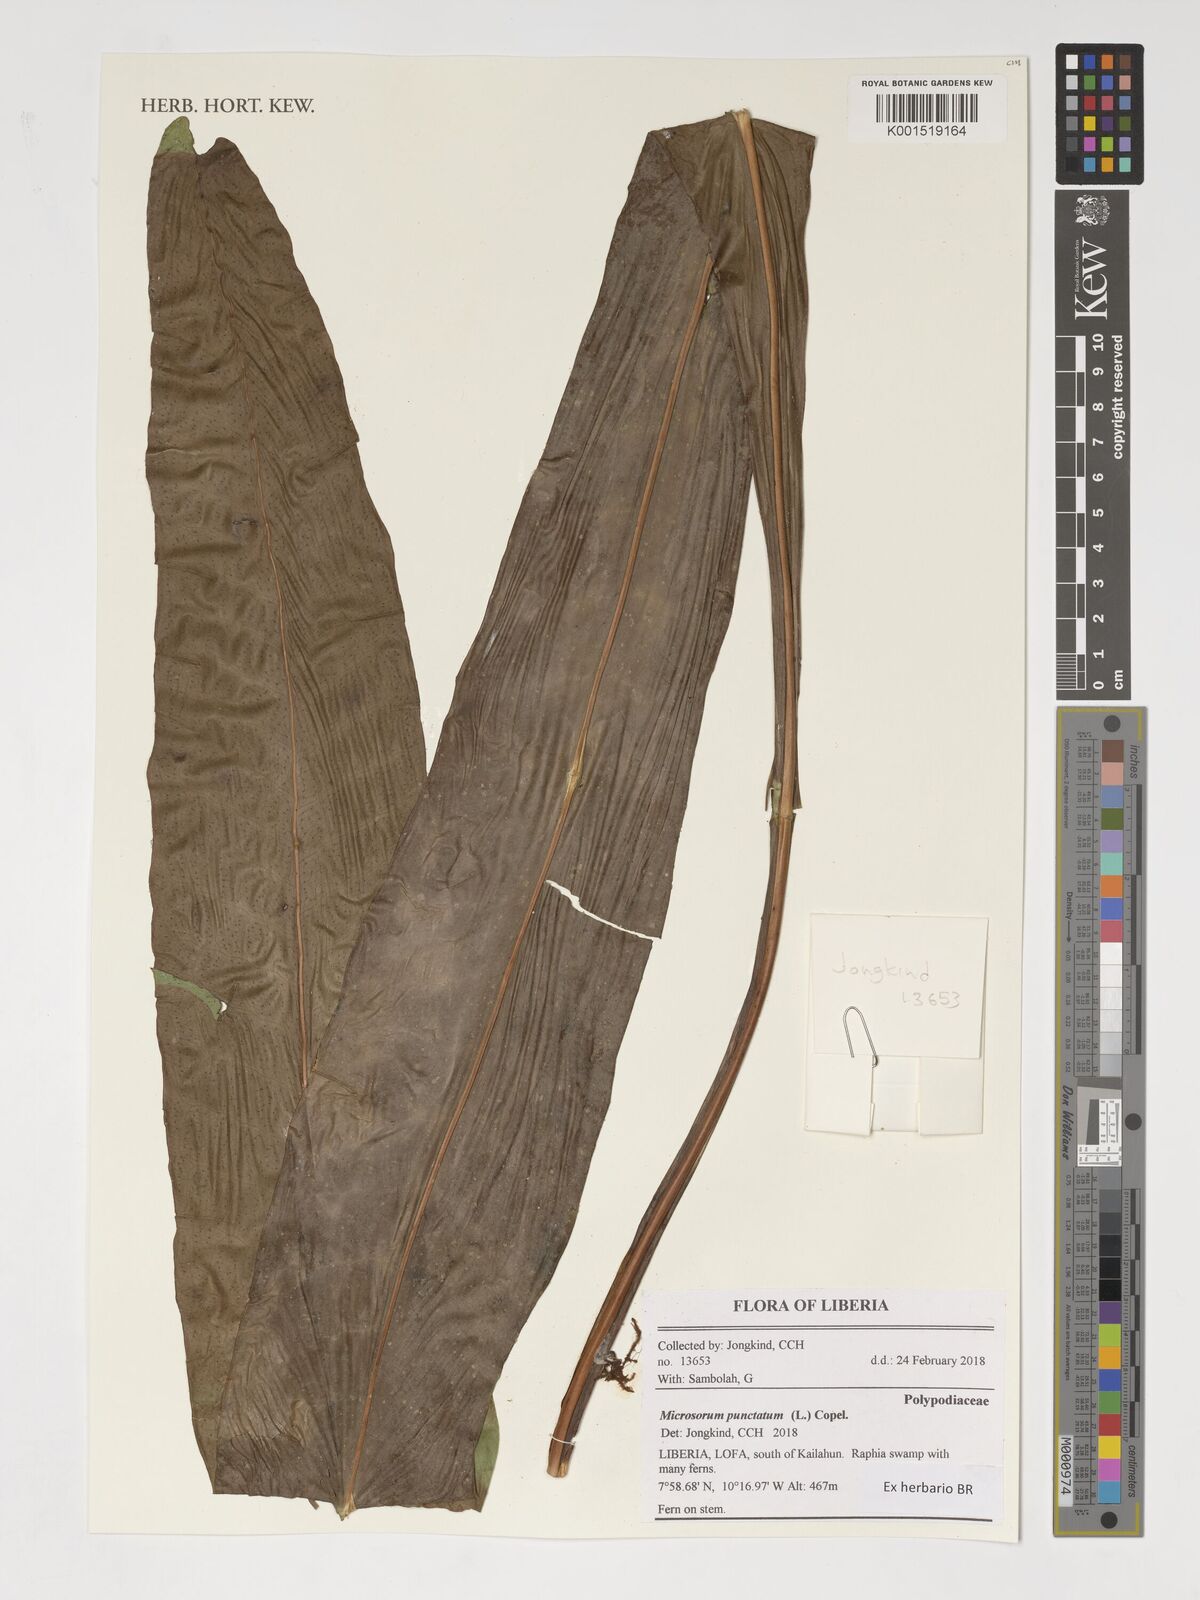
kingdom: Plantae
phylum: Tracheophyta
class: Polypodiopsida
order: Polypodiales
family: Polypodiaceae
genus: Microsorum
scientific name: Microsorum punctatum
